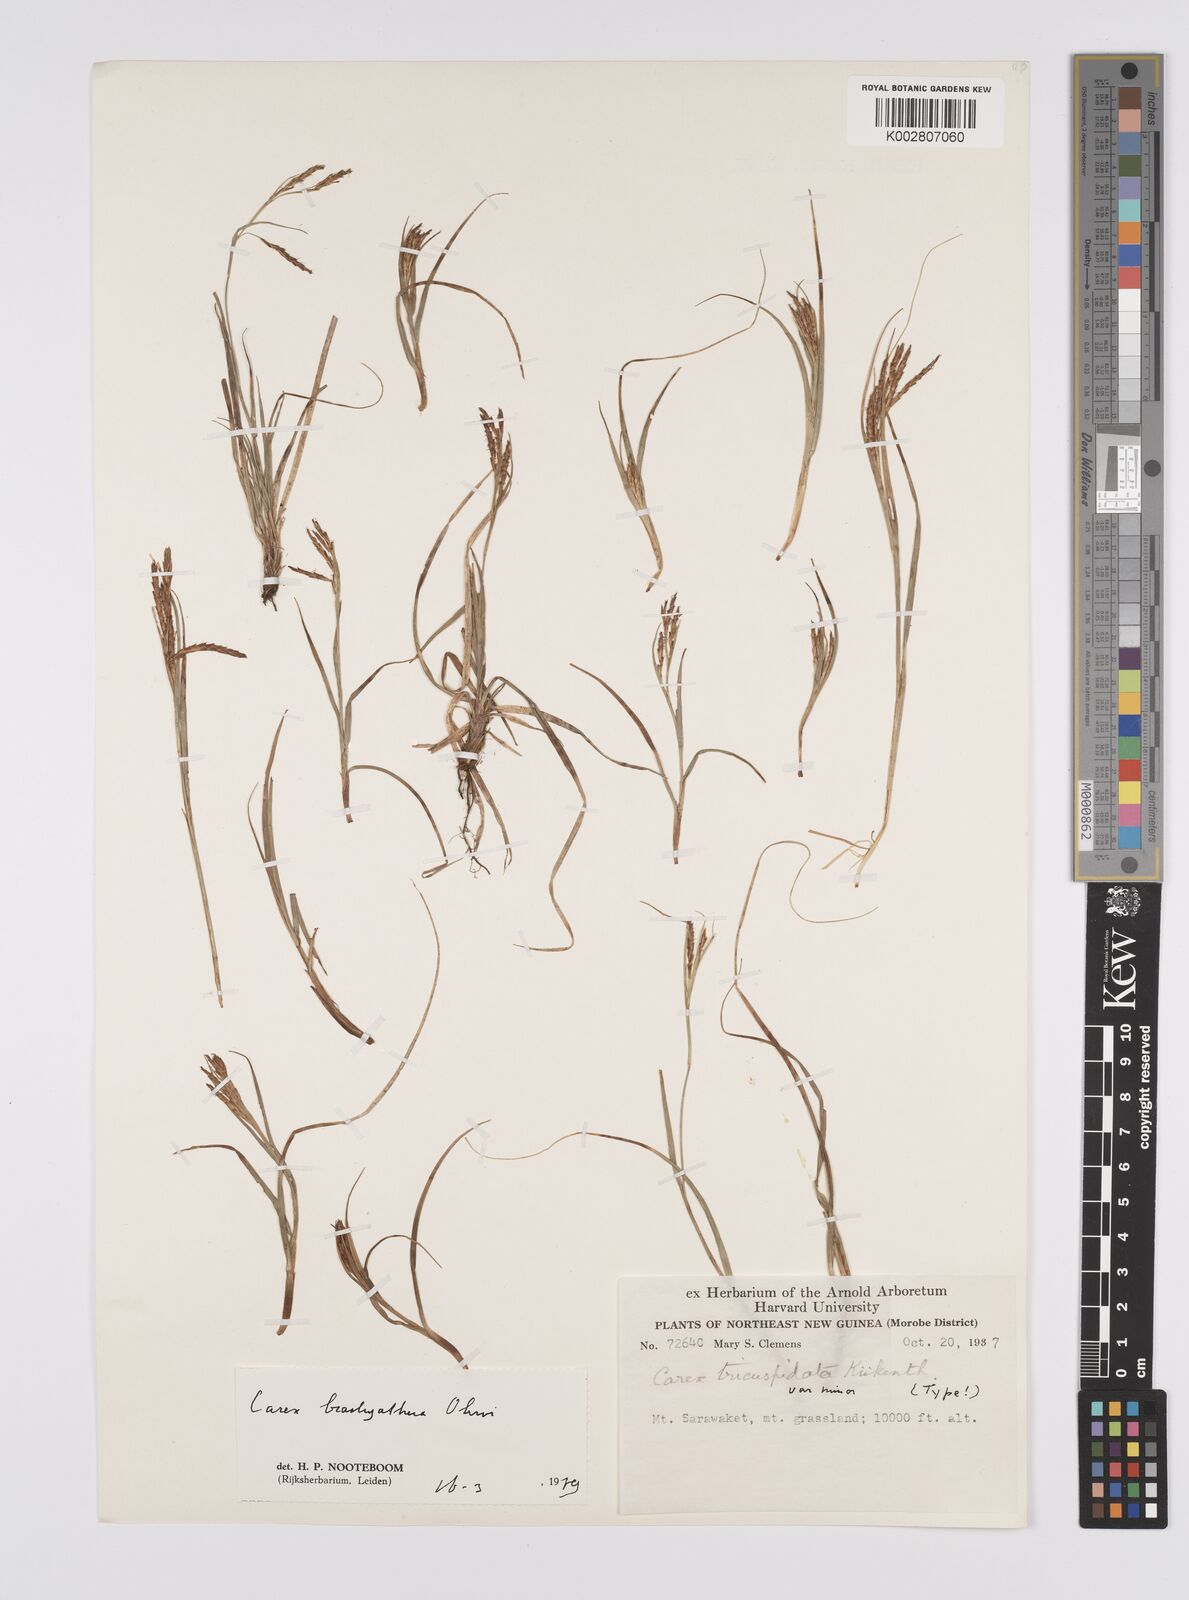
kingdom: Plantae
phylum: Tracheophyta
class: Liliopsida
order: Poales
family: Cyperaceae
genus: Carex
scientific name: Carex brachyanthera
